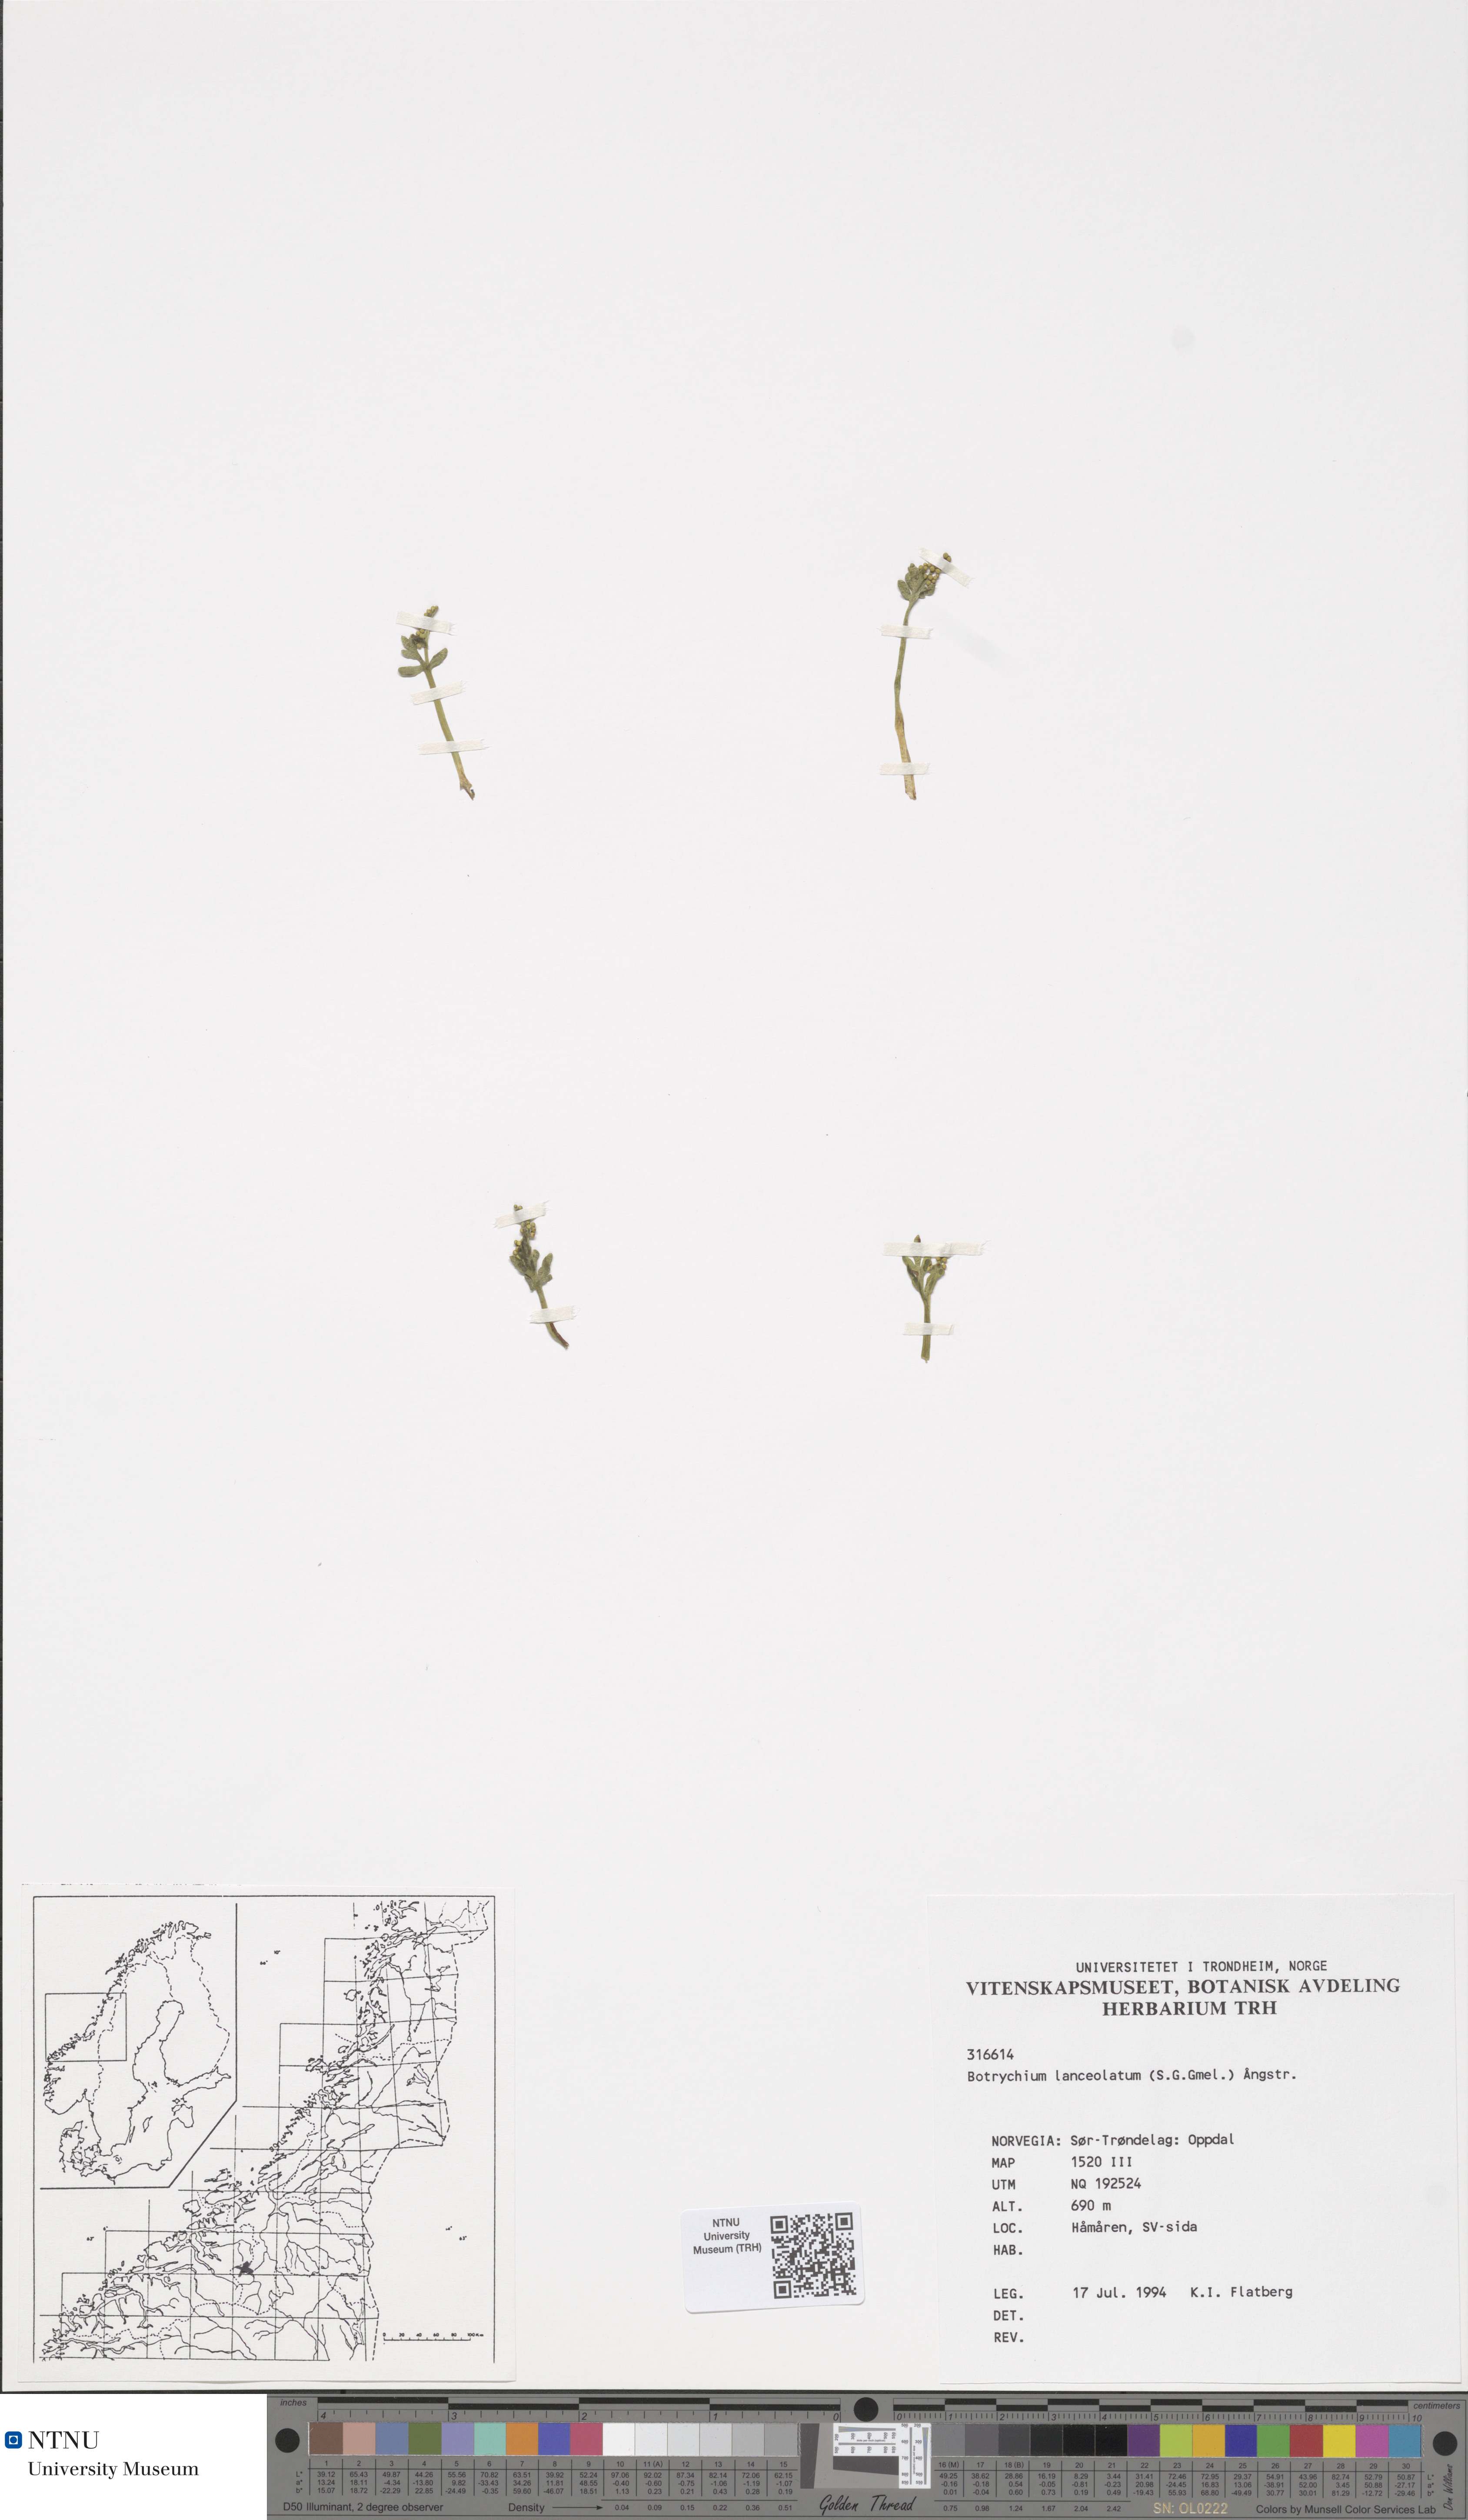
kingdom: Plantae
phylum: Tracheophyta
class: Polypodiopsida
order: Ophioglossales
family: Ophioglossaceae
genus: Botrychium
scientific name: Botrychium lanceolatum
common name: Lance-leaved moonwort
